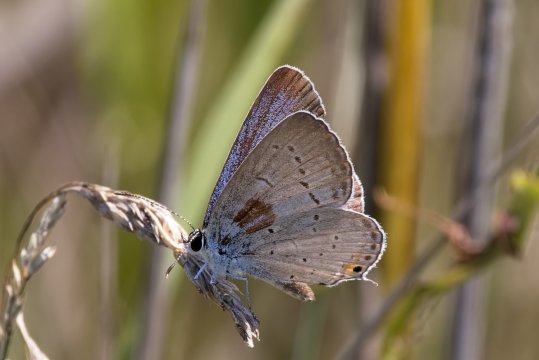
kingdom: Animalia
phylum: Arthropoda
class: Insecta
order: Lepidoptera
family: Lycaenidae
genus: Elkalyce
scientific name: Elkalyce comyntas
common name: Eastern Tailed-Blue
